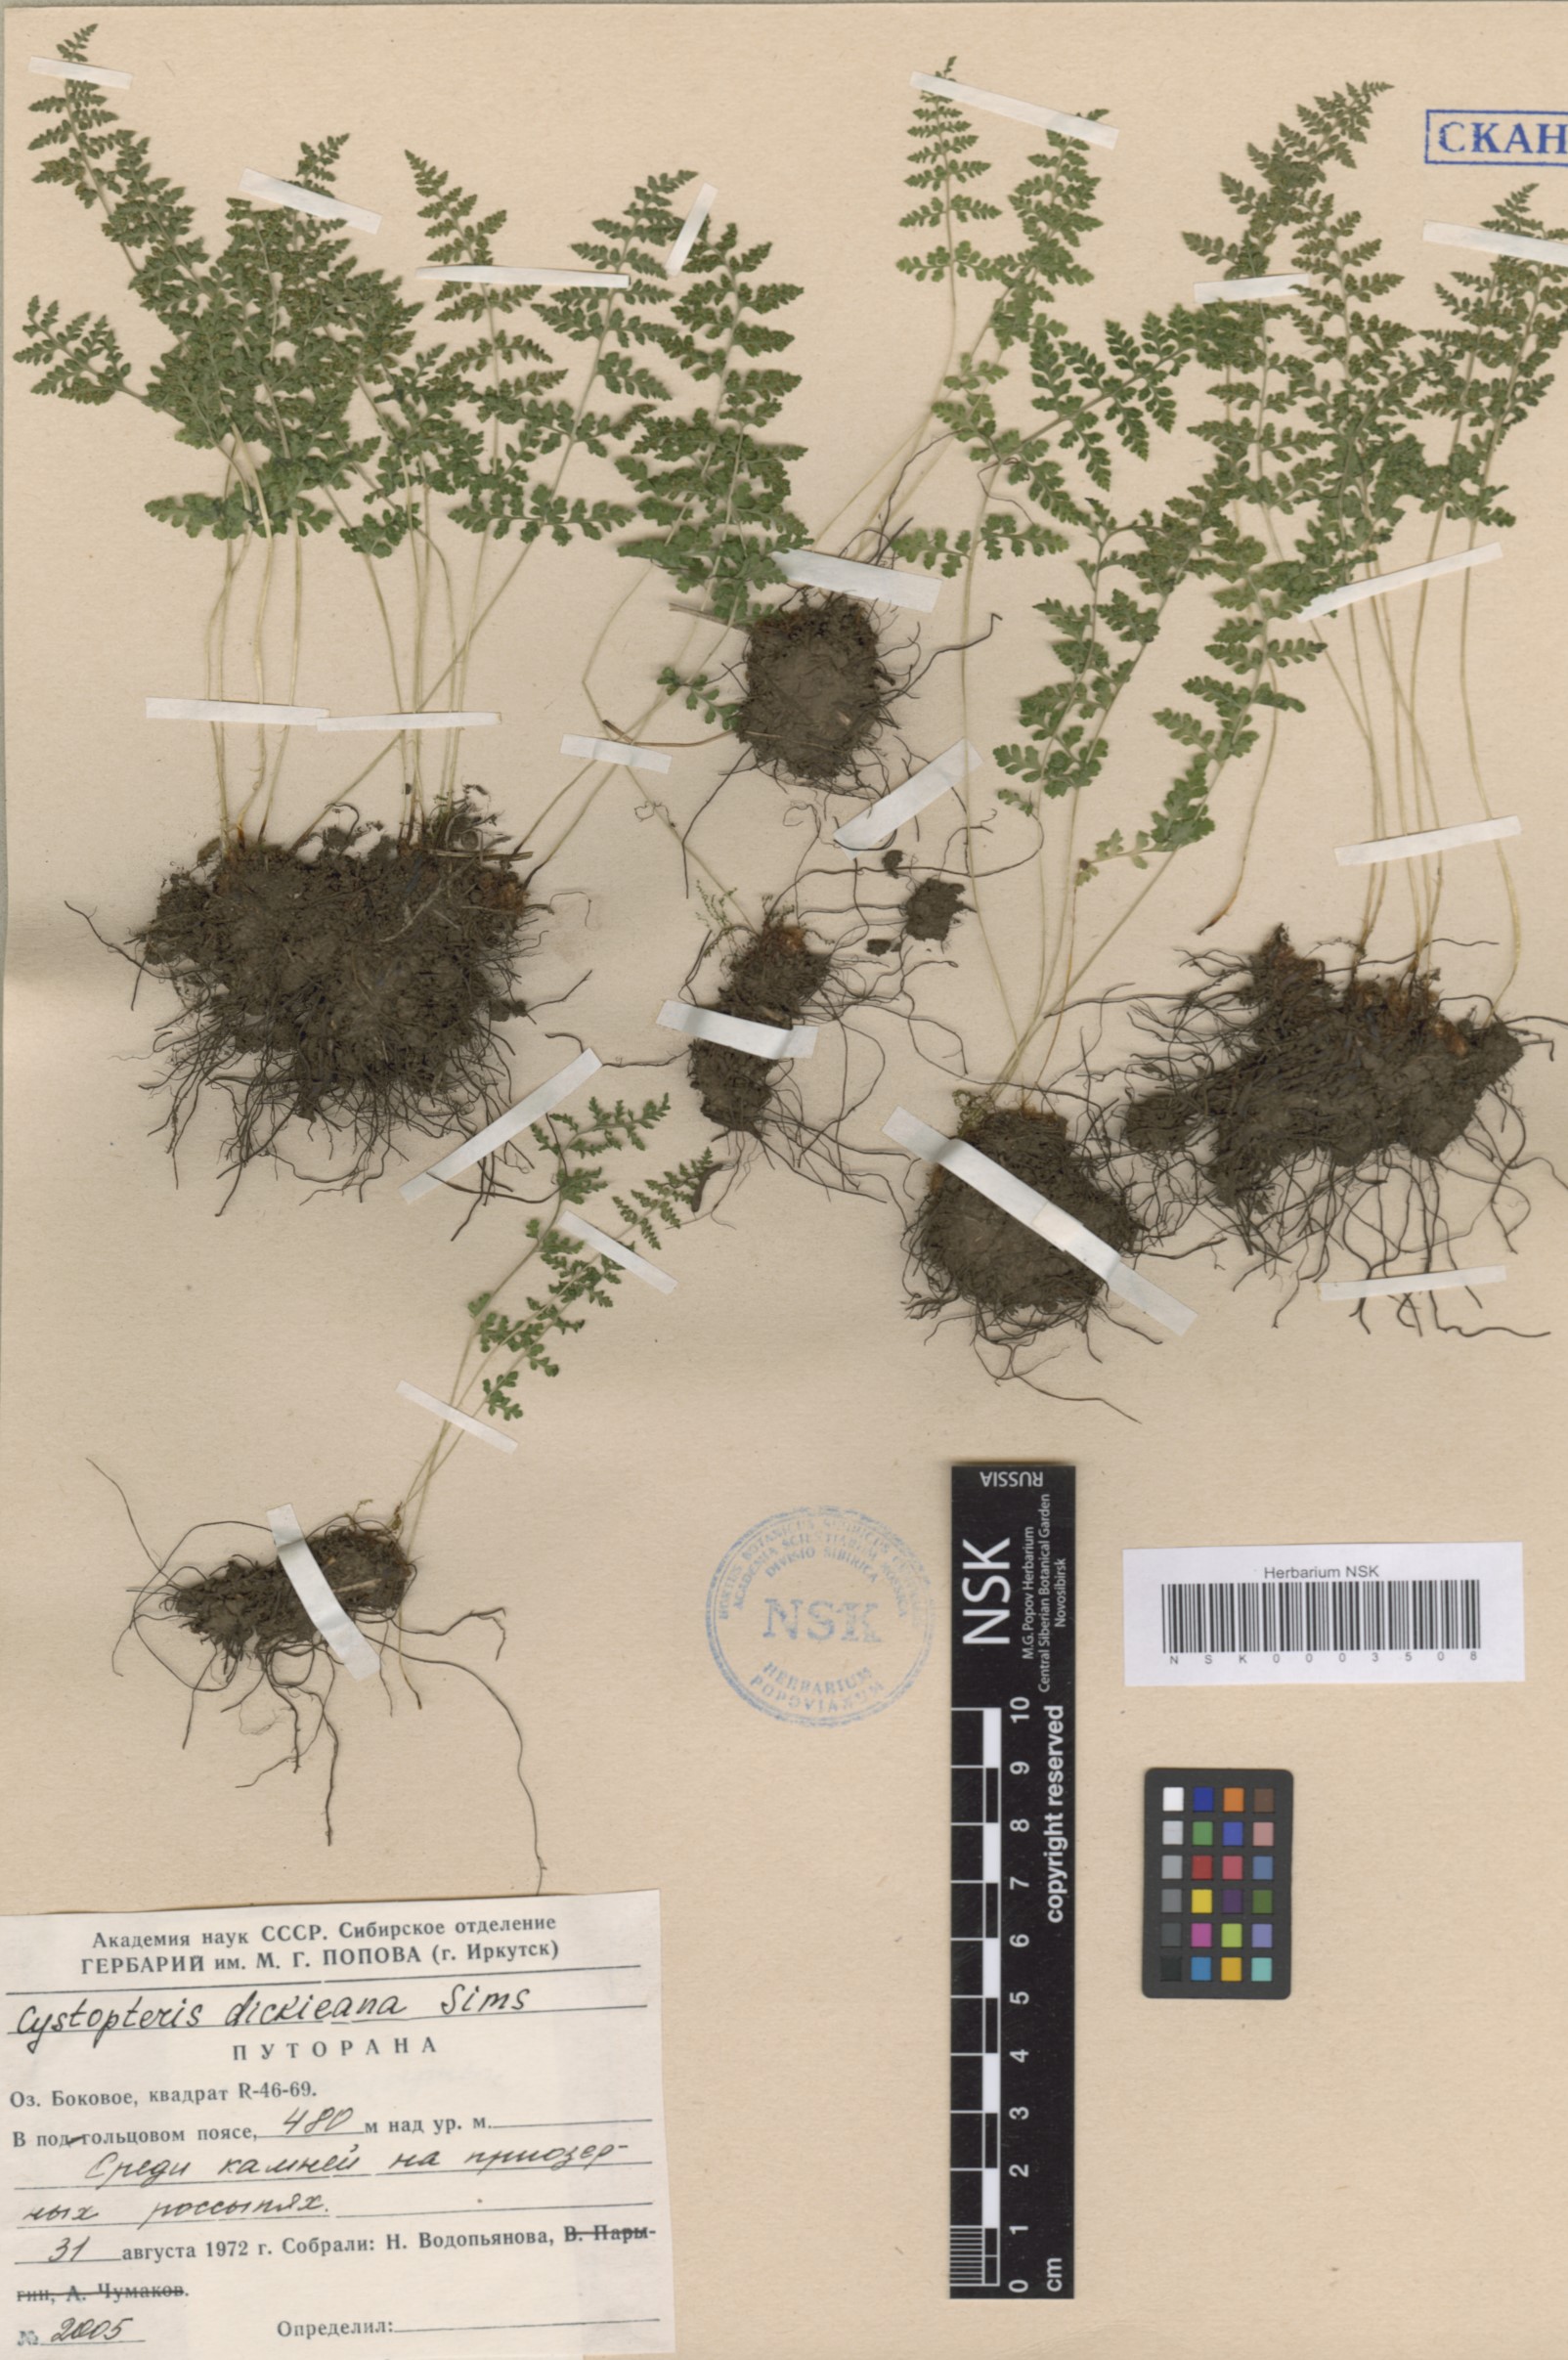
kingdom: Plantae
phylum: Tracheophyta
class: Polypodiopsida
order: Polypodiales
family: Cystopteridaceae
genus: Cystopteris
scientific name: Cystopteris dickieana
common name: Dickie's bladder-fern
